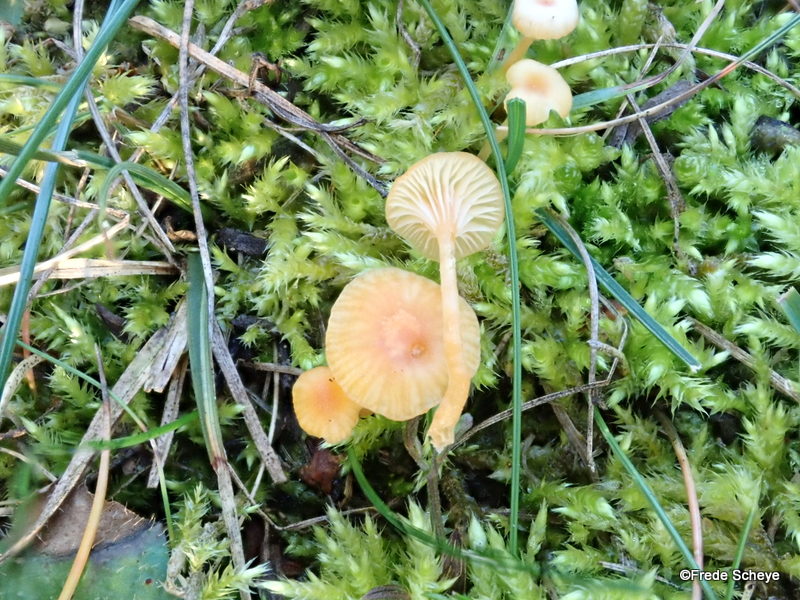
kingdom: Fungi
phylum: Basidiomycota
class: Agaricomycetes
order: Hymenochaetales
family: Rickenellaceae
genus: Rickenella
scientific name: Rickenella fibula
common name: orange mosnavlehat
